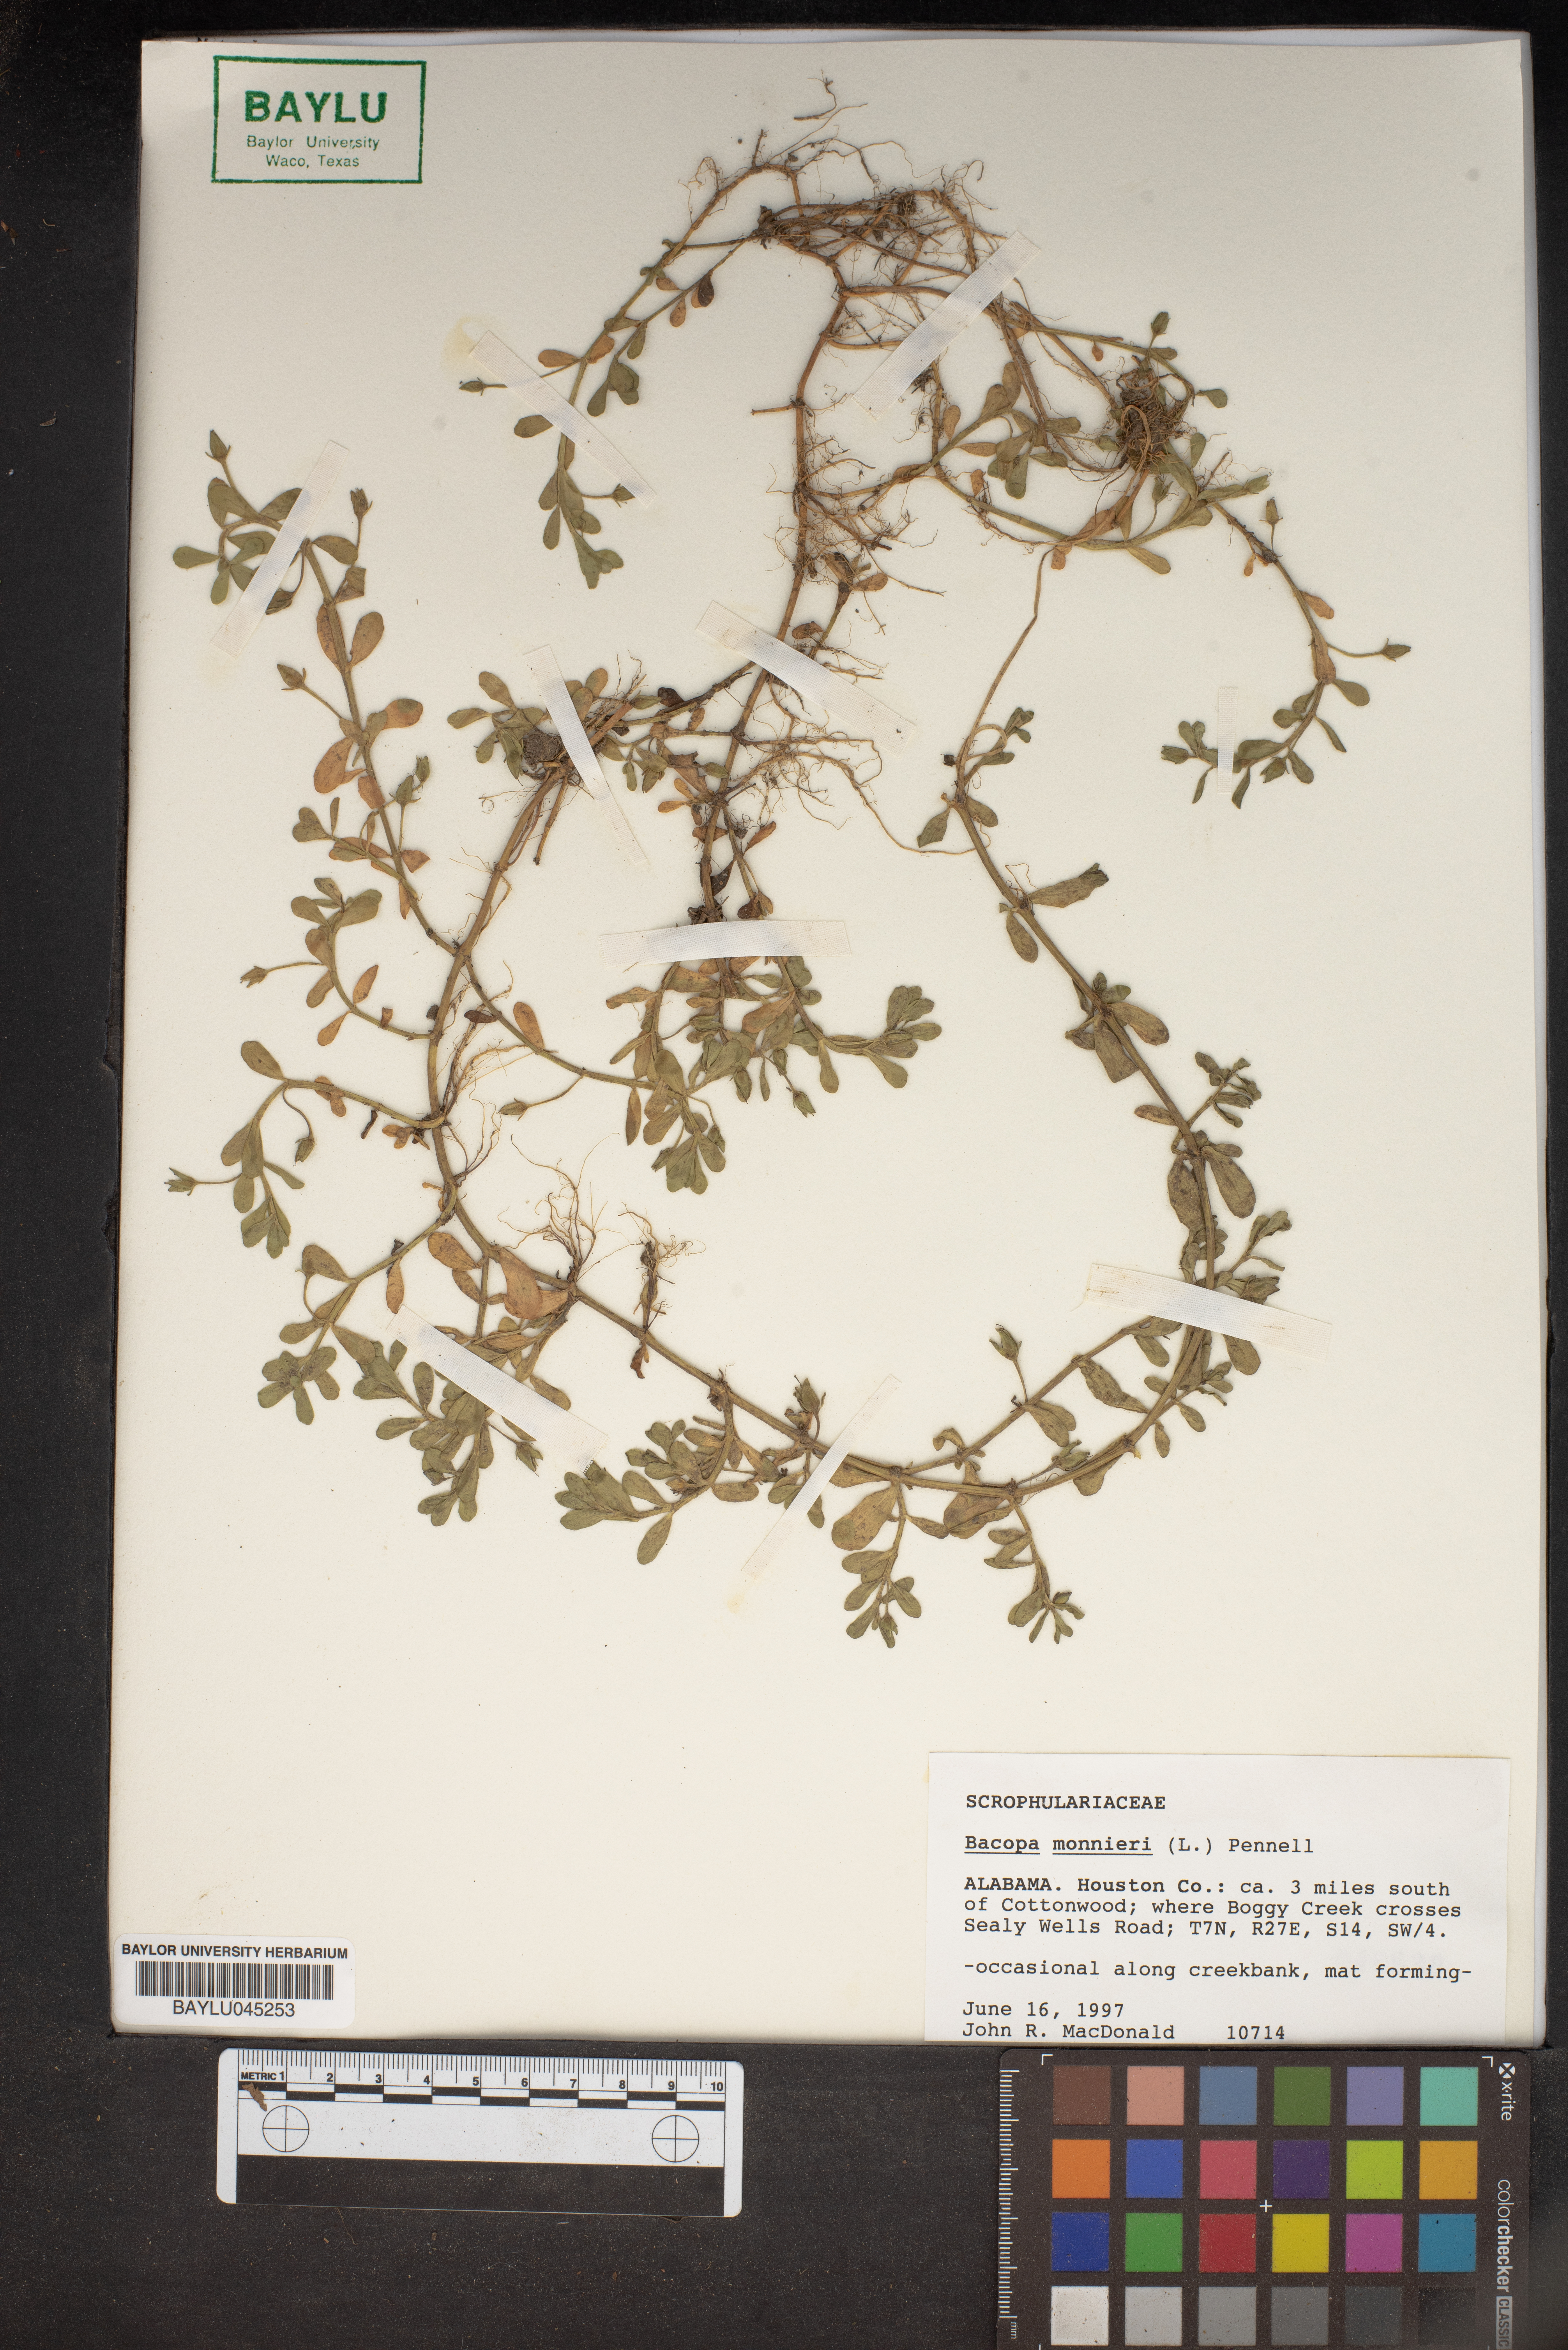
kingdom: Plantae
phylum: Tracheophyta
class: Magnoliopsida
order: Lamiales
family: Plantaginaceae
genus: Bacopa
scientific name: Bacopa monnieri
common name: Indian-pennywort
